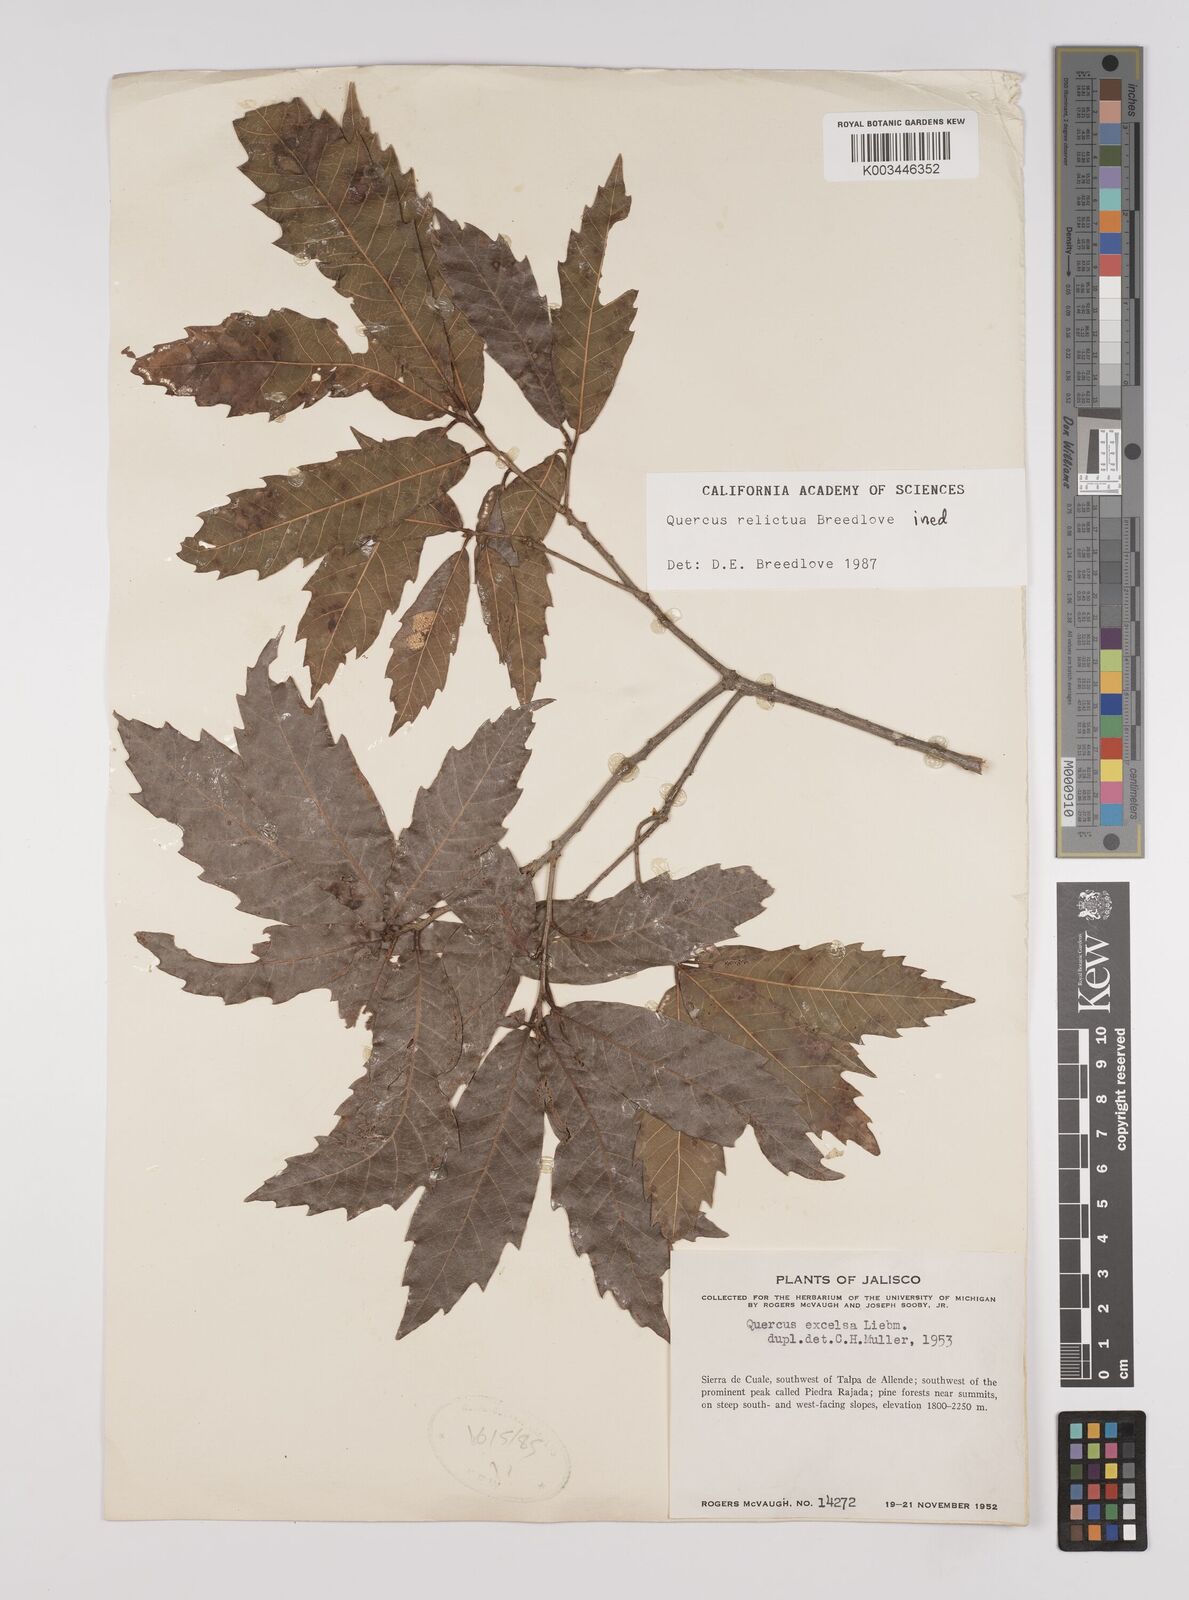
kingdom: Plantae
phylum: Tracheophyta
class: Magnoliopsida
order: Fagales
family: Fagaceae
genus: Quercus
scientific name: Quercus
